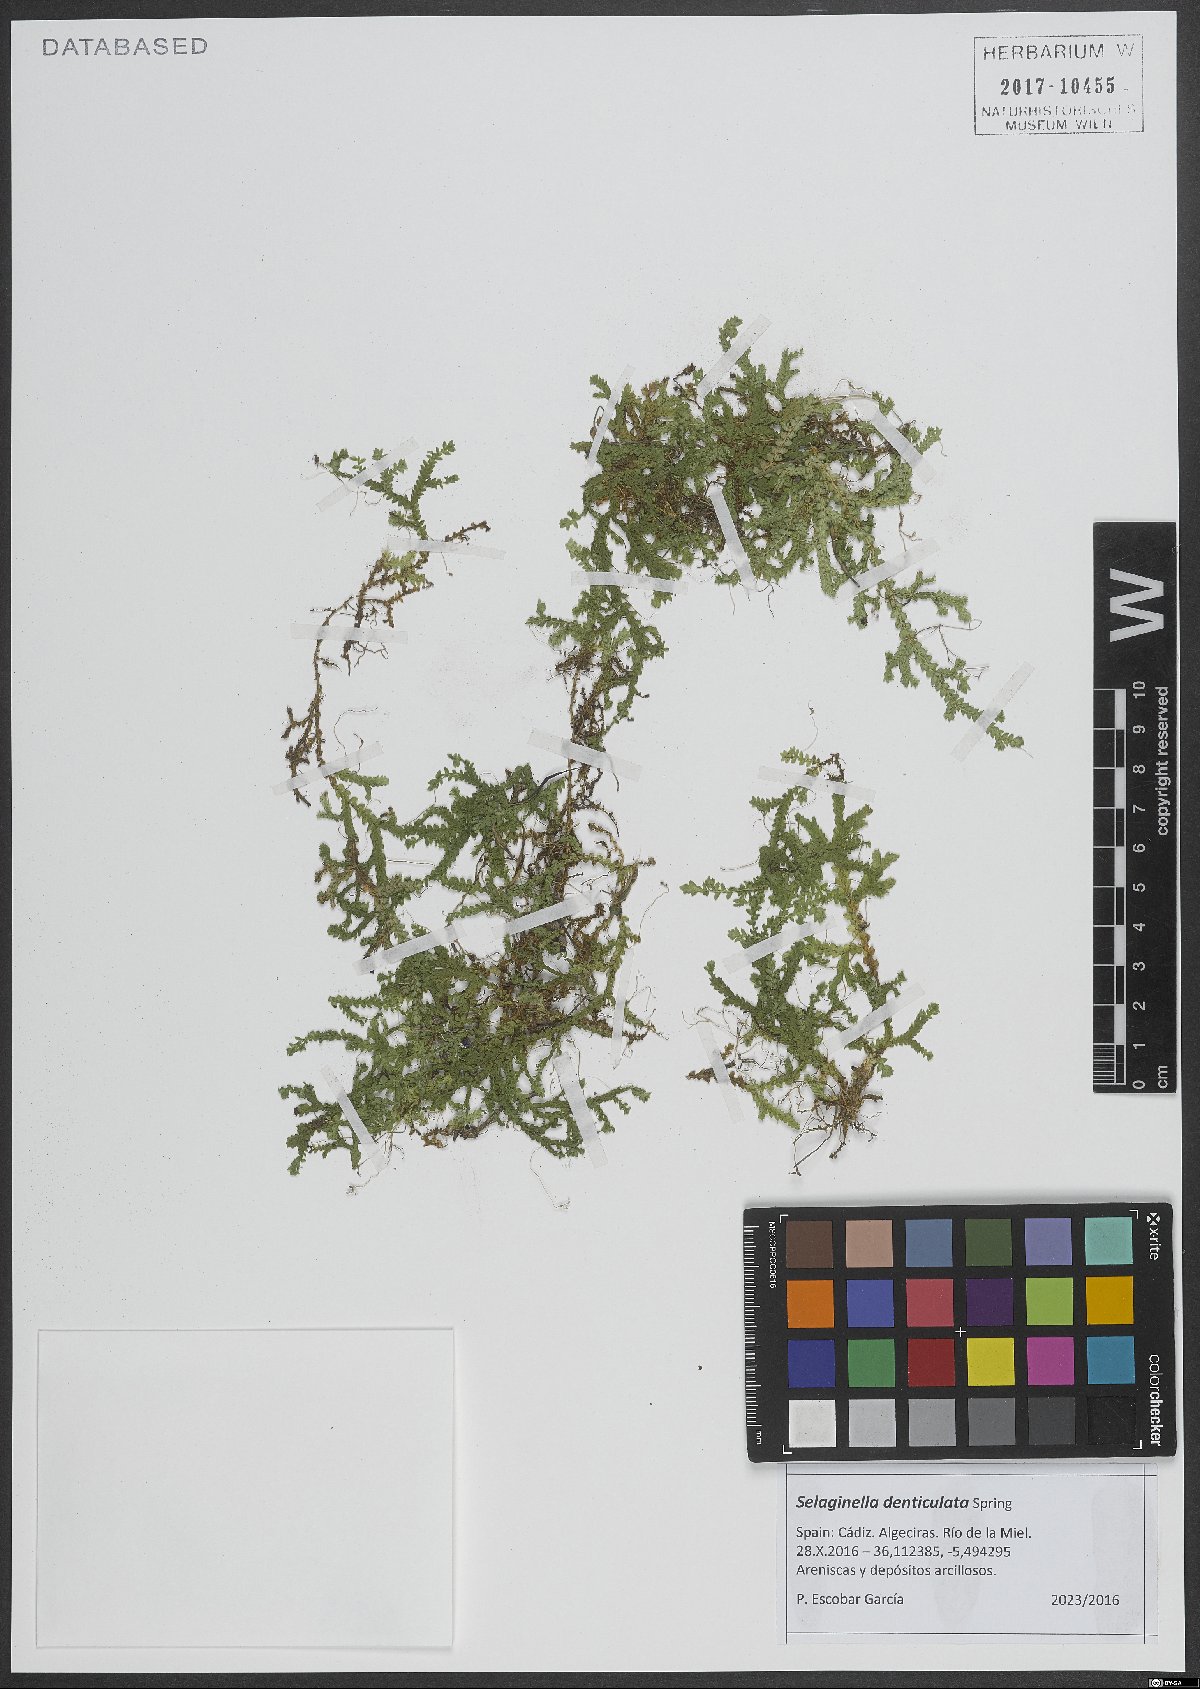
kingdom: Plantae
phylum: Tracheophyta
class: Lycopodiopsida
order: Selaginellales
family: Selaginellaceae
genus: Selaginella
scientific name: Selaginella denticulata
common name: Toothed-leaved clubmoss
